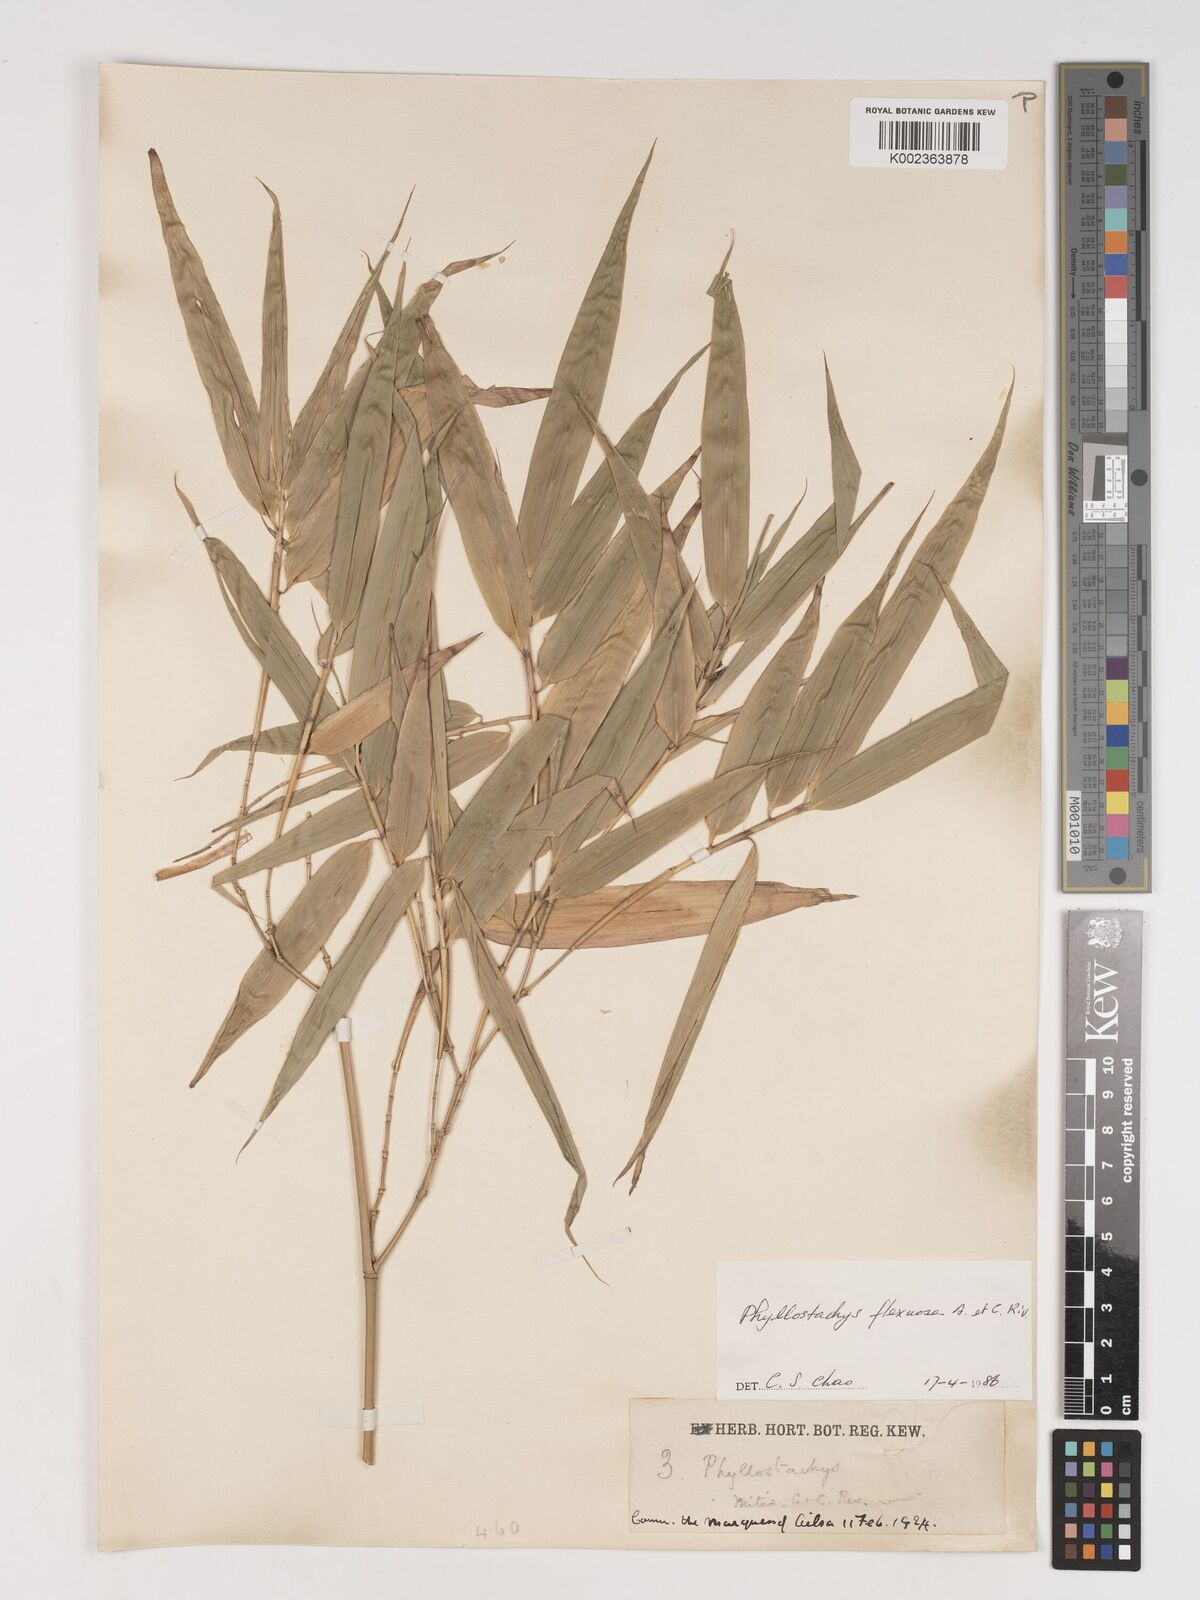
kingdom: Plantae
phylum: Tracheophyta
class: Liliopsida
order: Poales
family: Poaceae
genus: Phyllostachys
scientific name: Phyllostachys flexuosa
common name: Drooping timber bamboo
